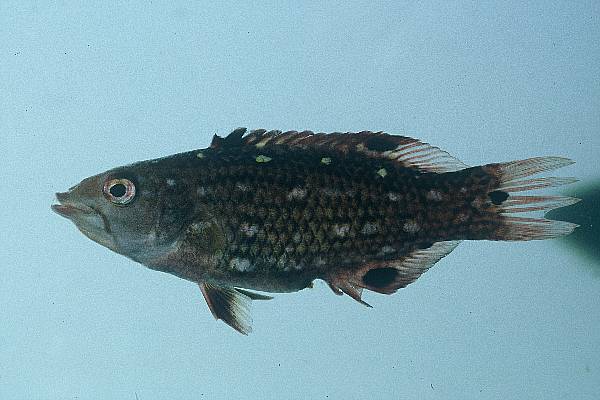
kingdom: Animalia
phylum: Chordata
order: Perciformes
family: Labridae
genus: Bodianus
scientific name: Bodianus diana
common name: Diana's hogfish
